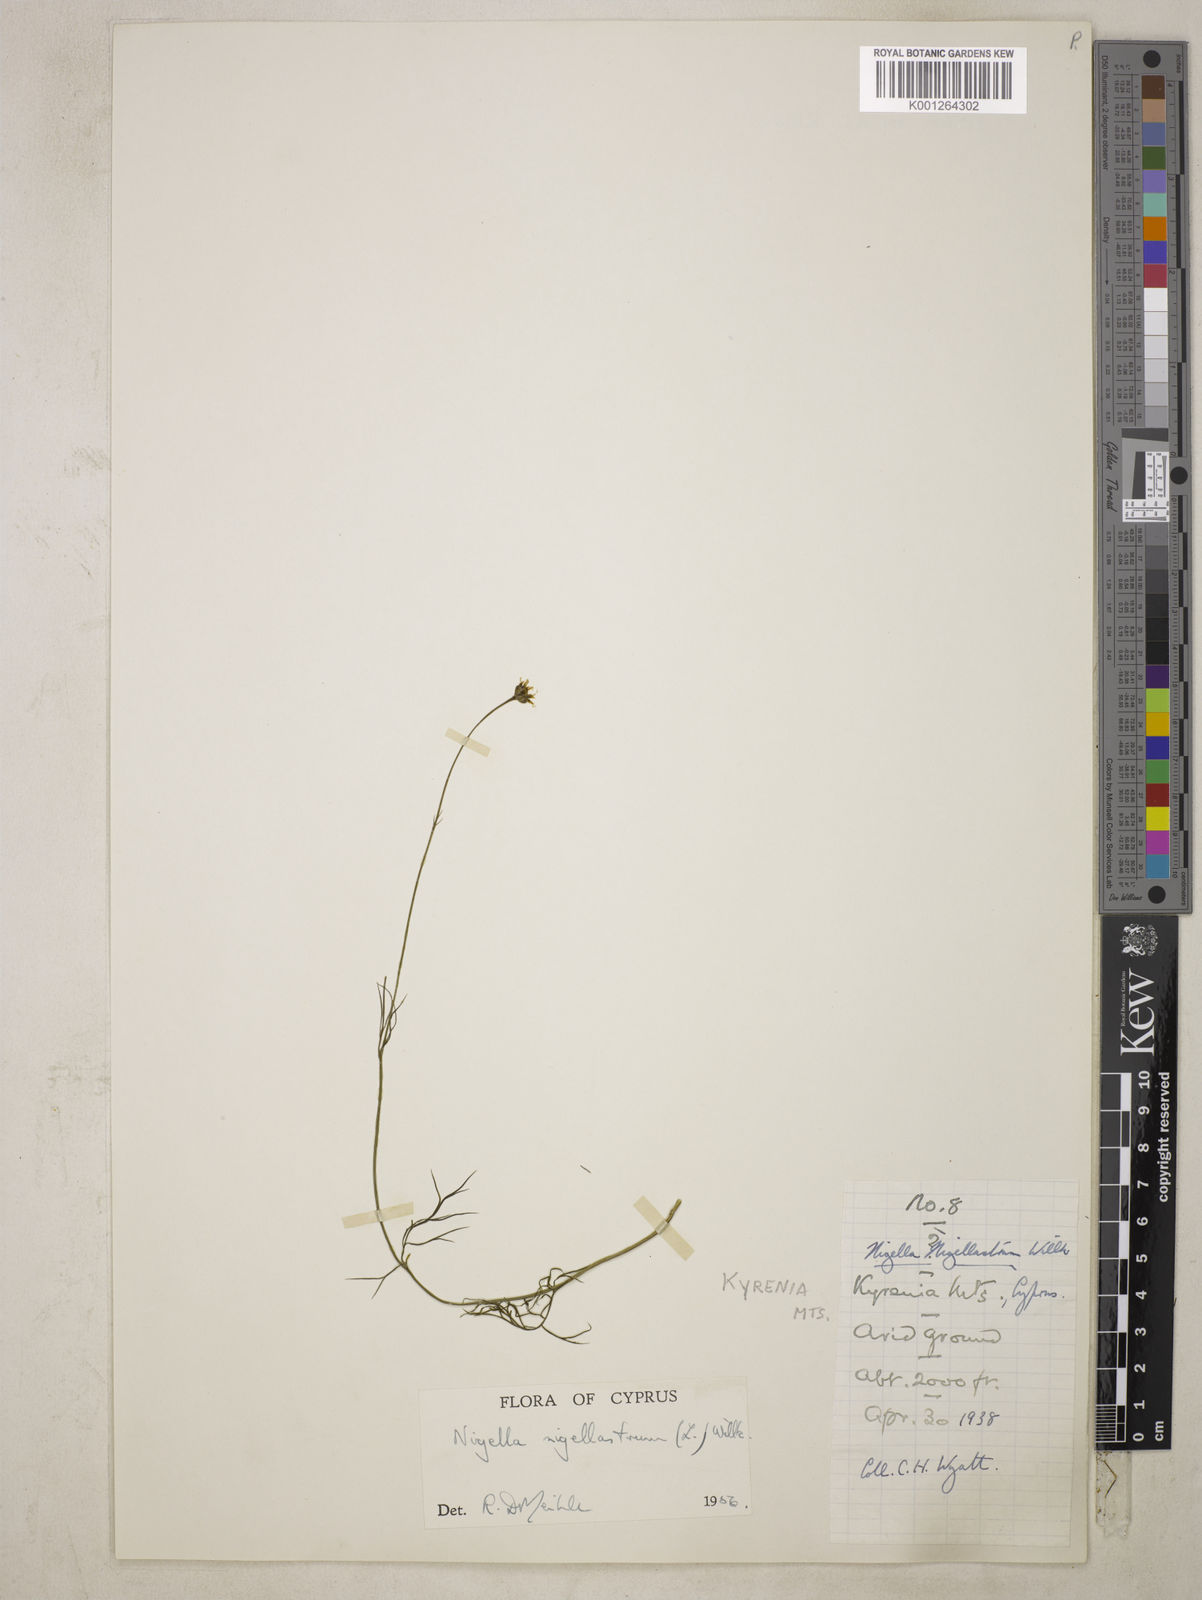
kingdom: Plantae
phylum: Tracheophyta
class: Magnoliopsida
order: Ranunculales
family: Ranunculaceae
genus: Garidella
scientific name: Garidella nigellastrum
